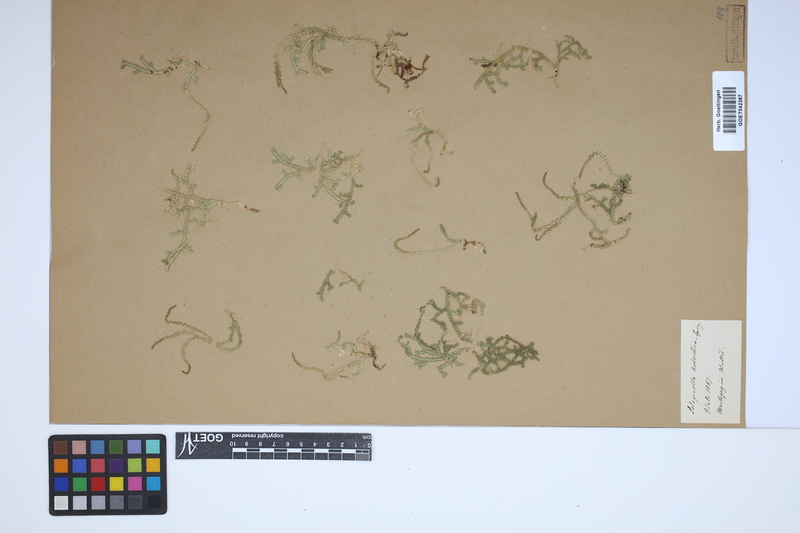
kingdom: Plantae
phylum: Tracheophyta
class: Lycopodiopsida
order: Selaginellales
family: Selaginellaceae
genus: Selaginella
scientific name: Selaginella helvetica
